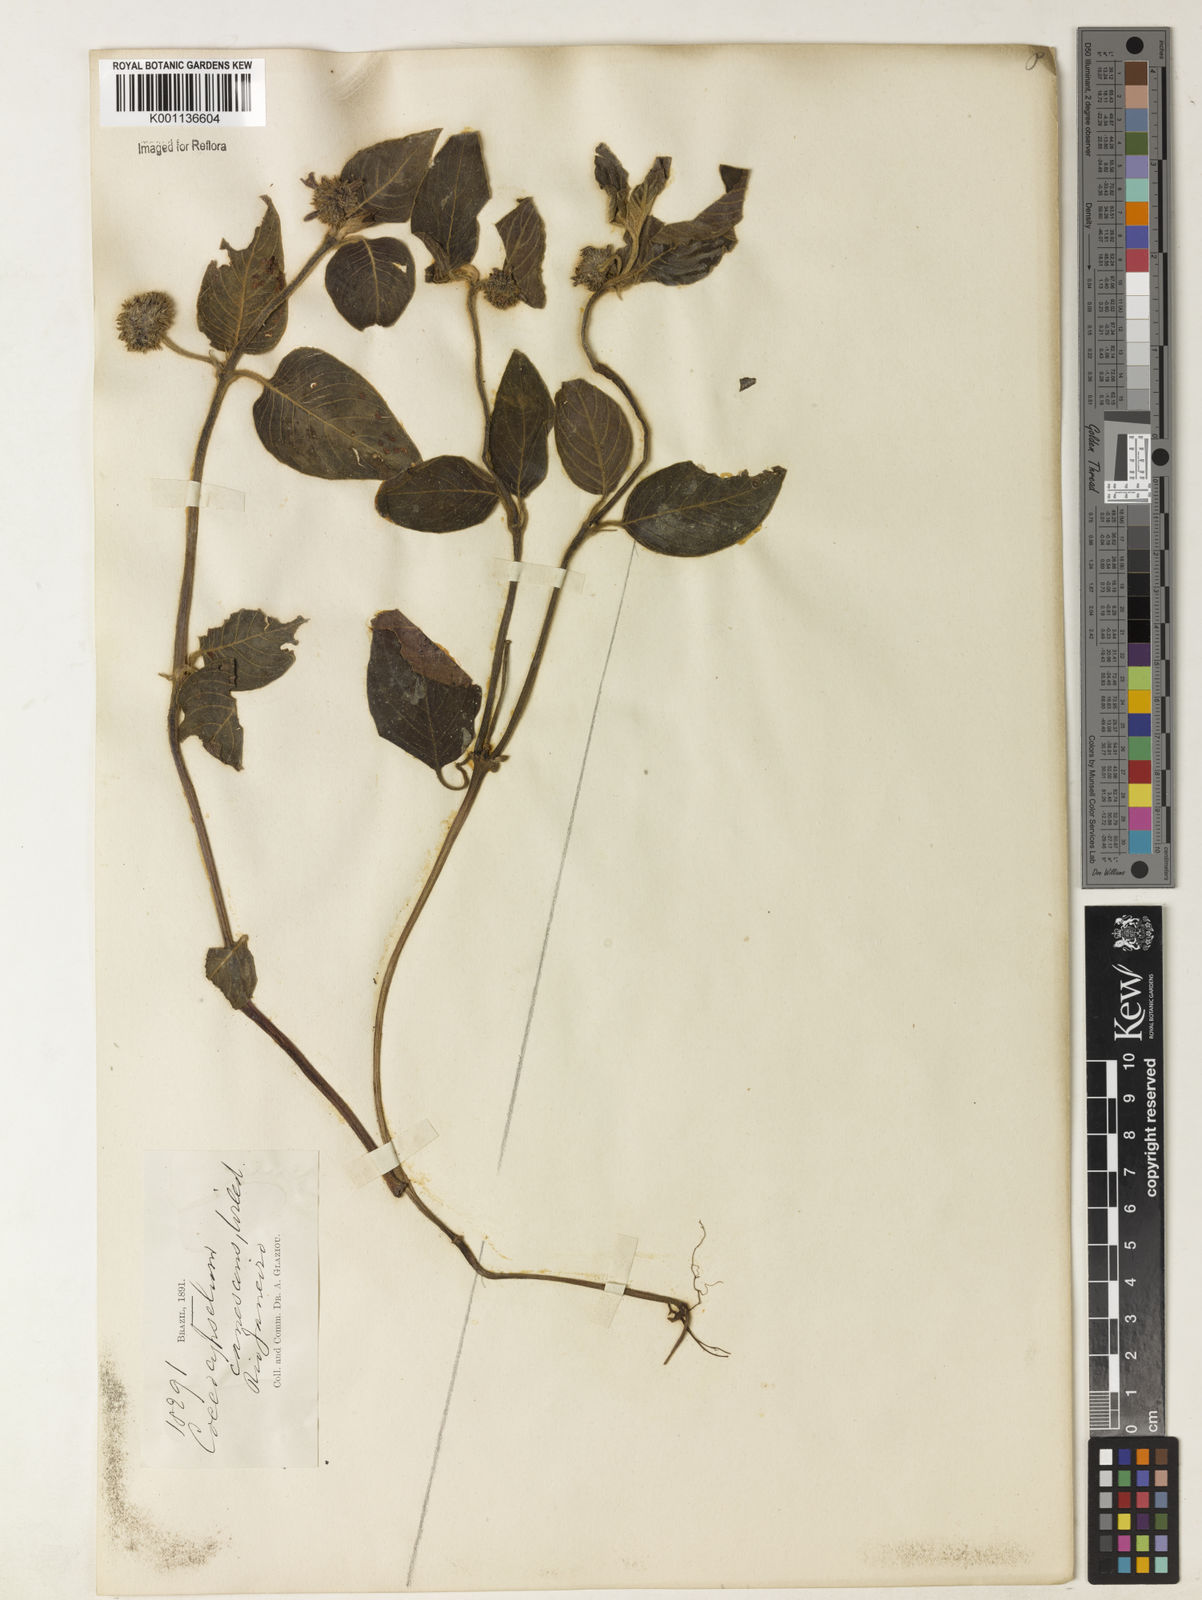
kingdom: Plantae
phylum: Tracheophyta
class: Magnoliopsida
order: Gentianales
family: Rubiaceae
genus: Coccocypselum
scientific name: Coccocypselum lanceolatum
